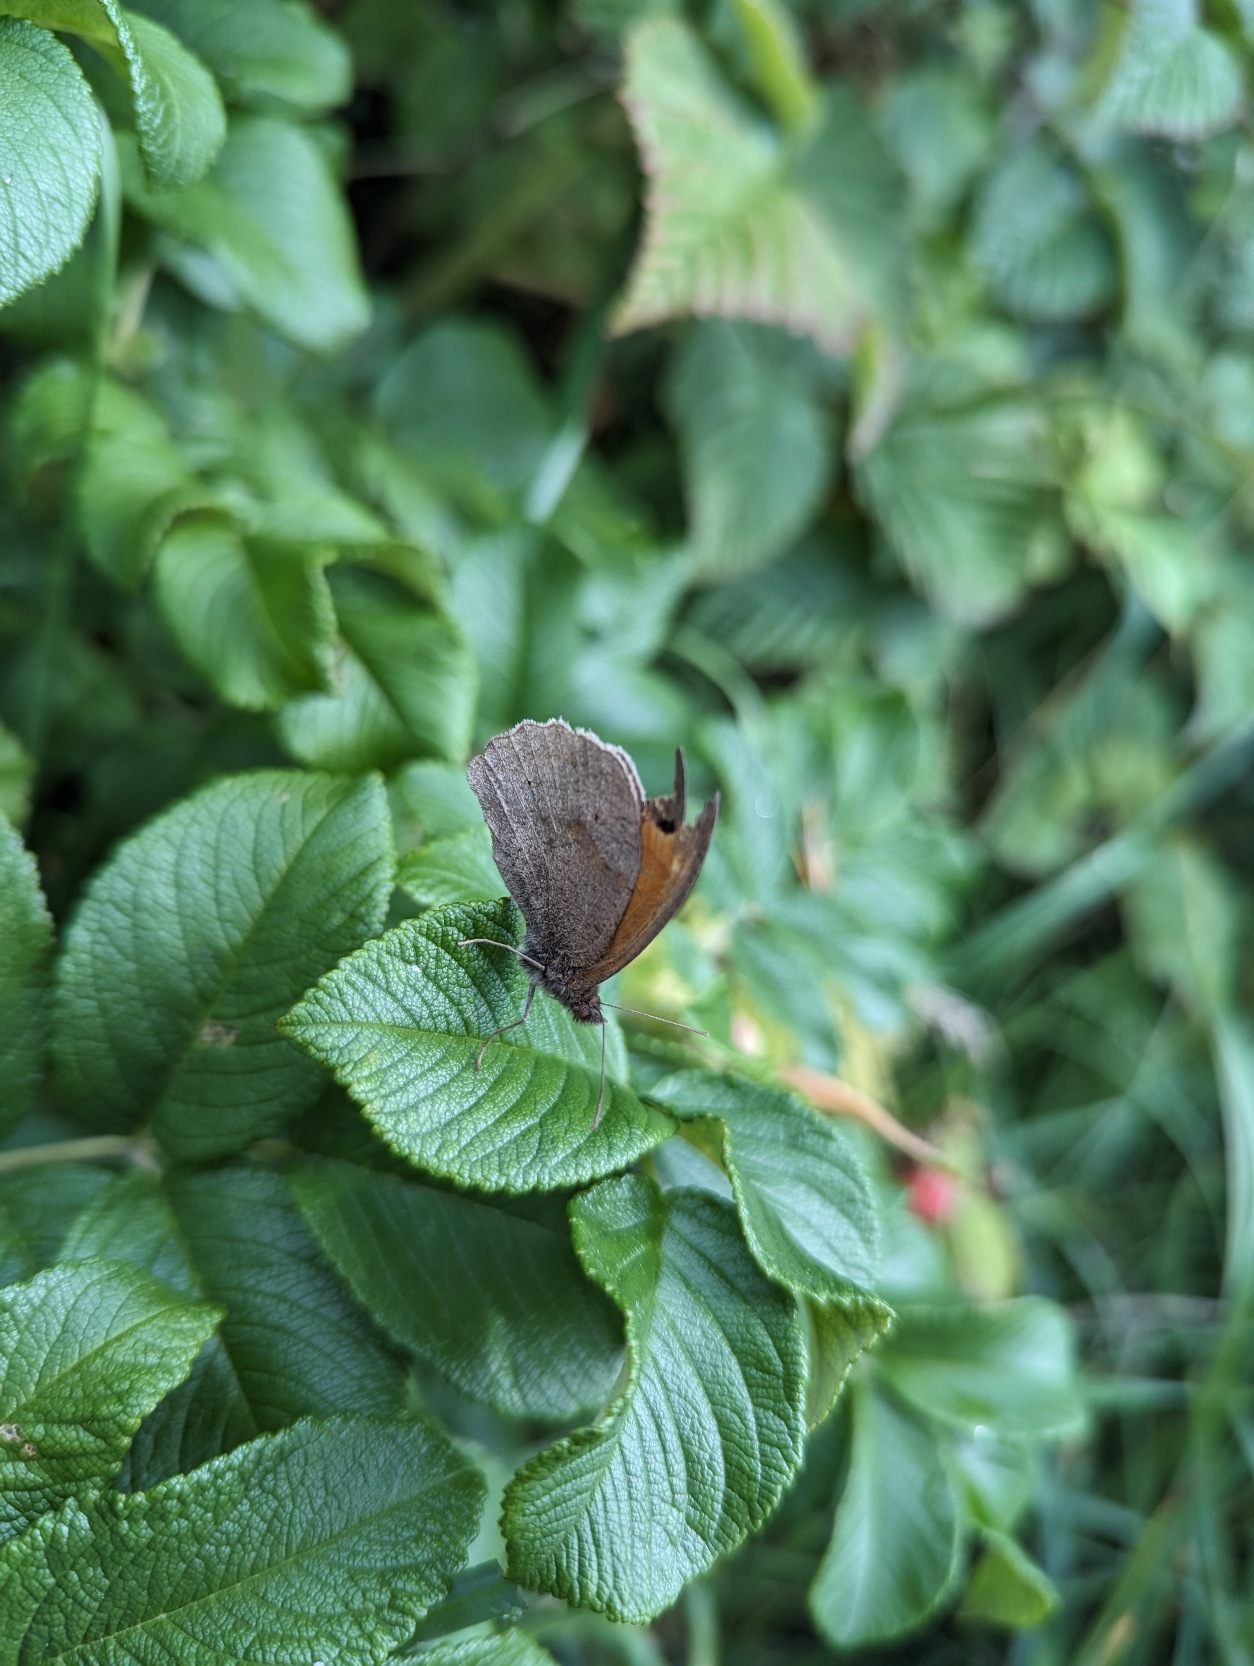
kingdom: Animalia
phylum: Arthropoda
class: Insecta
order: Lepidoptera
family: Nymphalidae
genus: Maniola
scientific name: Maniola jurtina
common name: Græsrandøje
